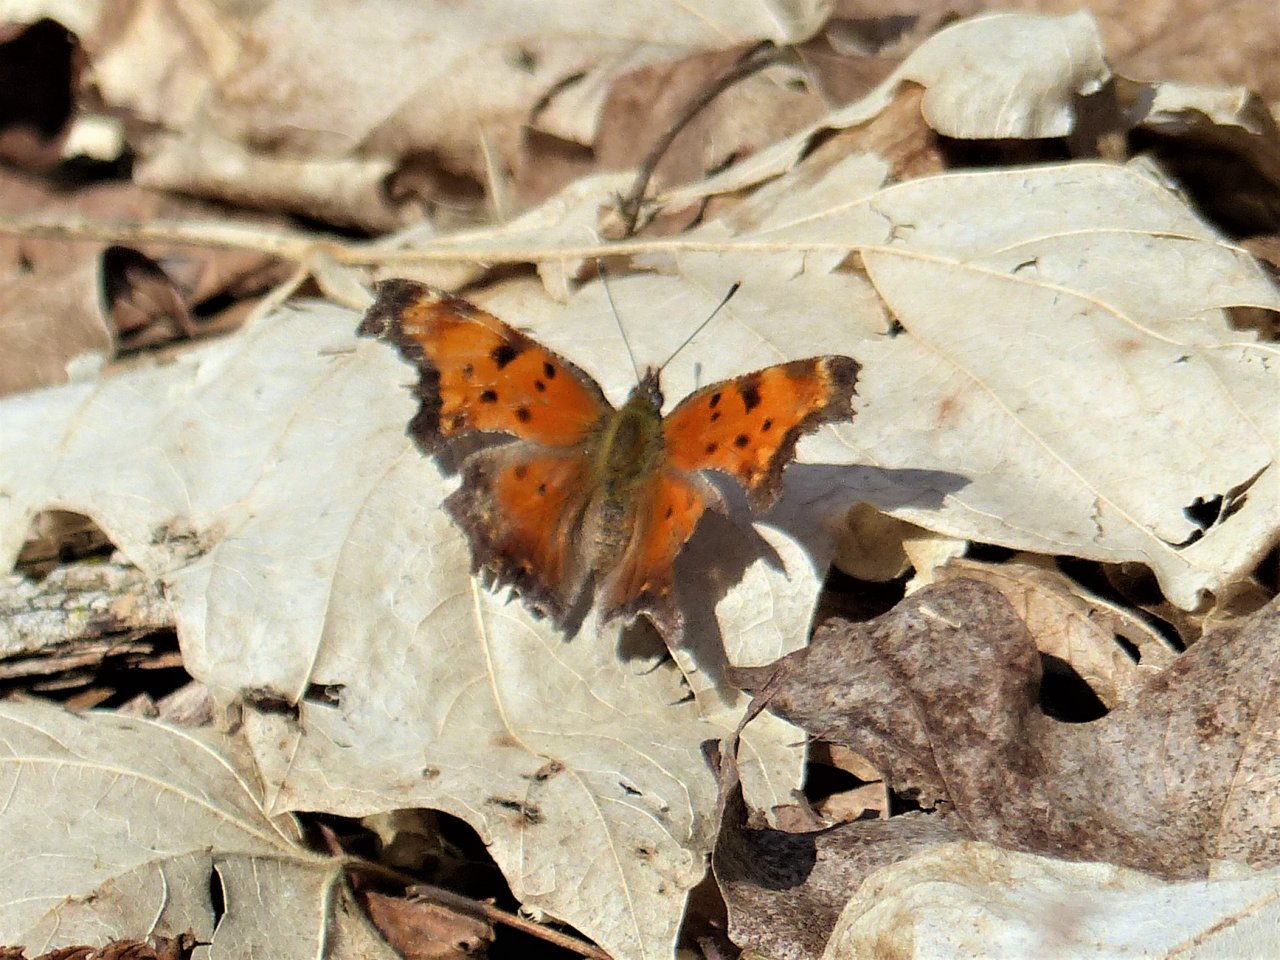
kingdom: Animalia
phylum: Arthropoda
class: Insecta
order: Lepidoptera
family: Nymphalidae
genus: Polygonia
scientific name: Polygonia progne
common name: Gray Comma
